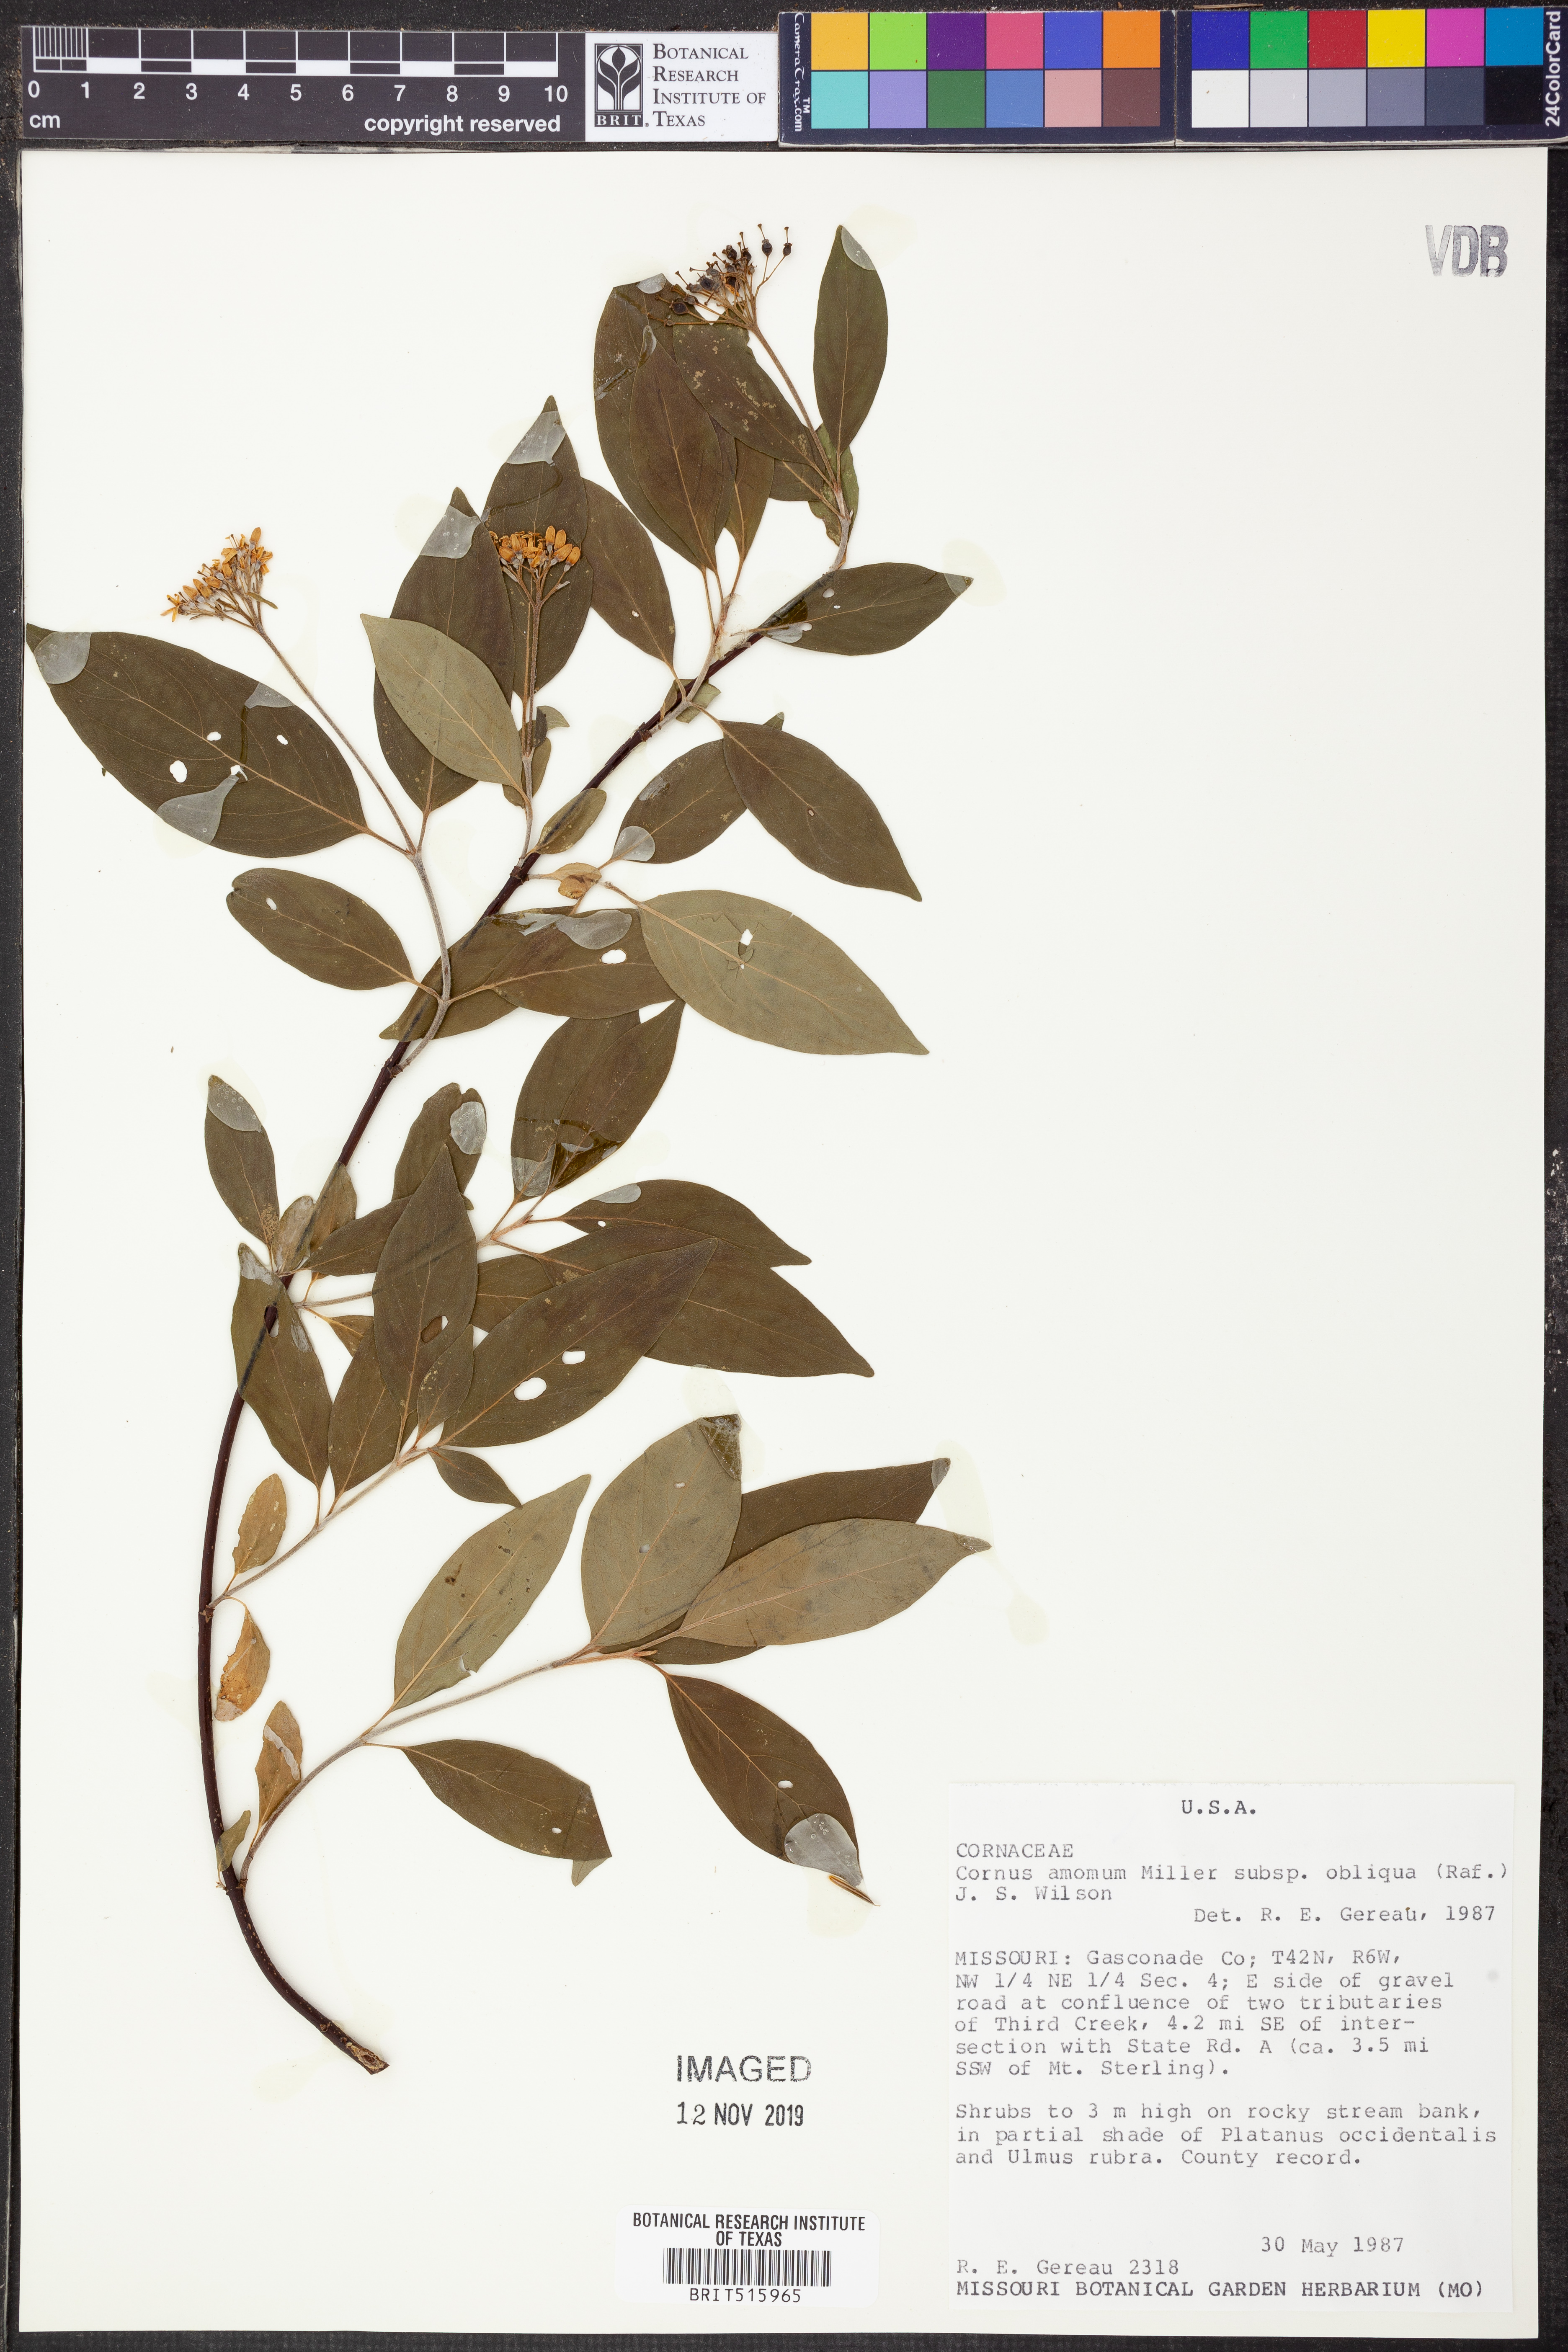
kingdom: Plantae
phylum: Tracheophyta
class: Magnoliopsida
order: Cornales
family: Cornaceae
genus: Cornus
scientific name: Cornus amomum
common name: Silky dogwood
